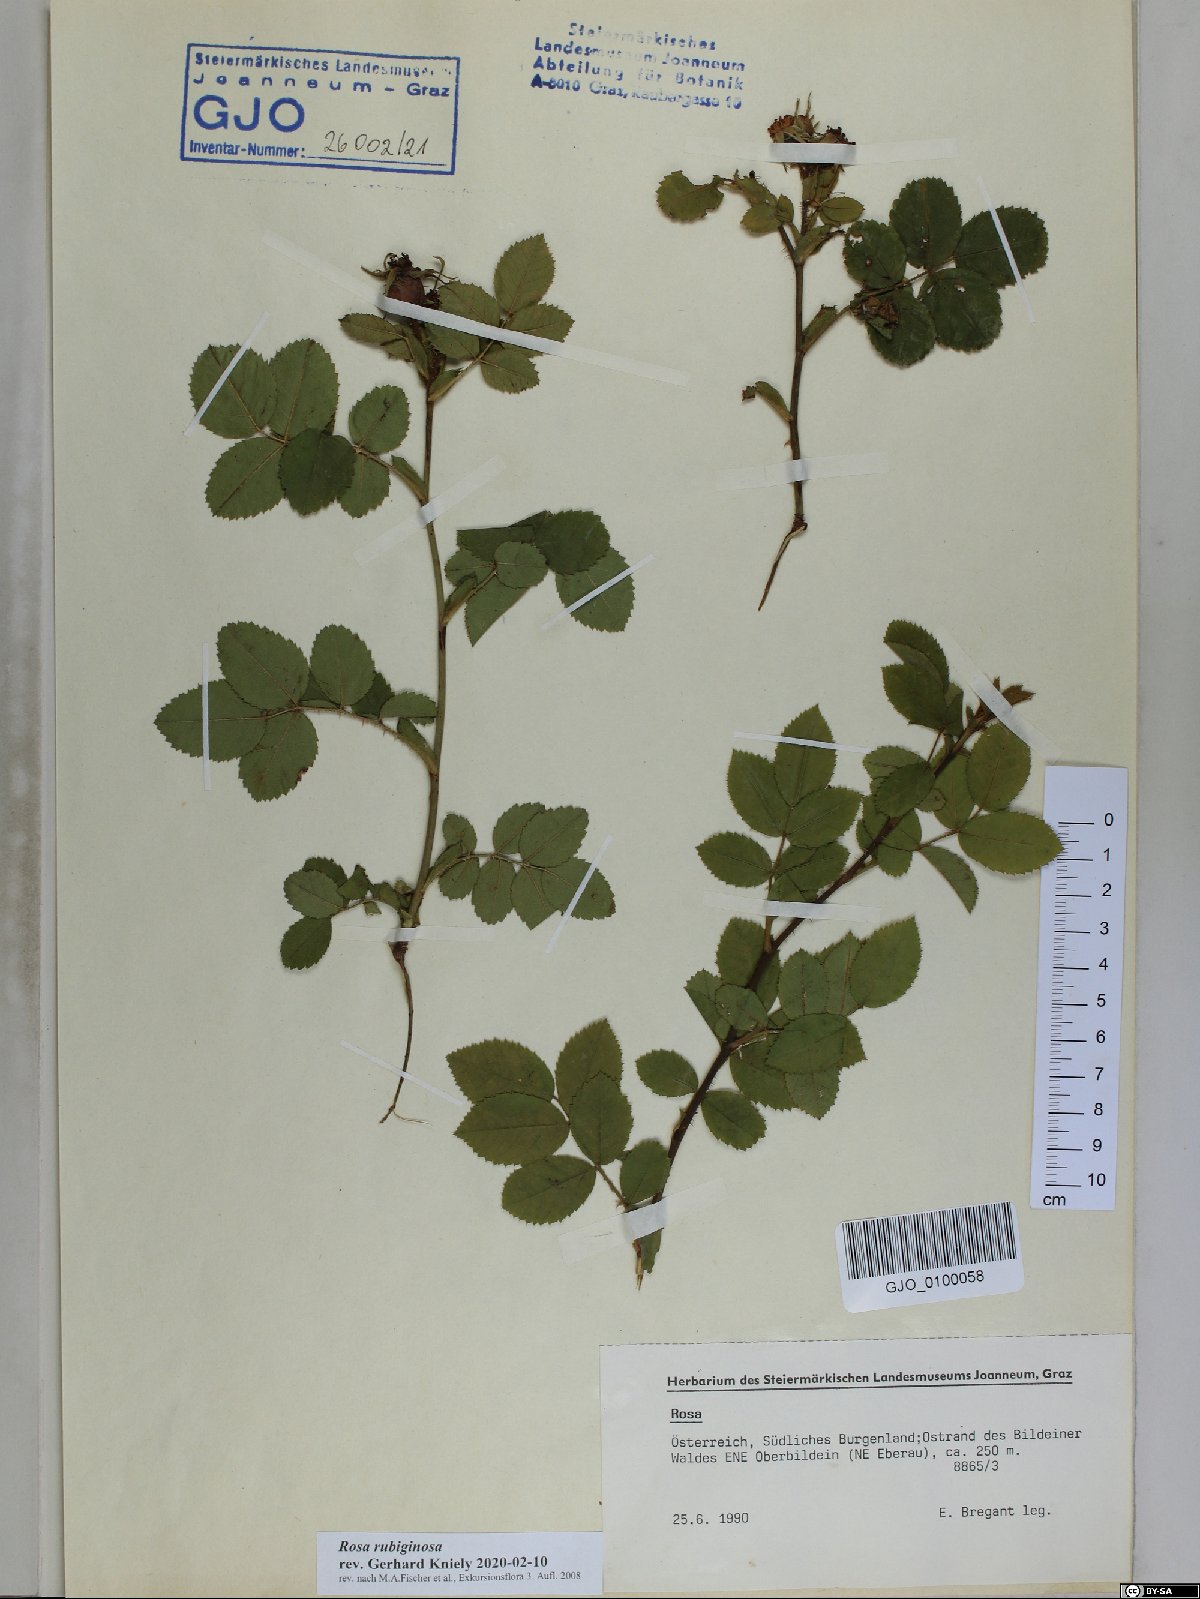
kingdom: Plantae
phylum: Tracheophyta
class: Magnoliopsida
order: Rosales
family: Rosaceae
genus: Rosa
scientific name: Rosa rubiginosa
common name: Sweet-briar
